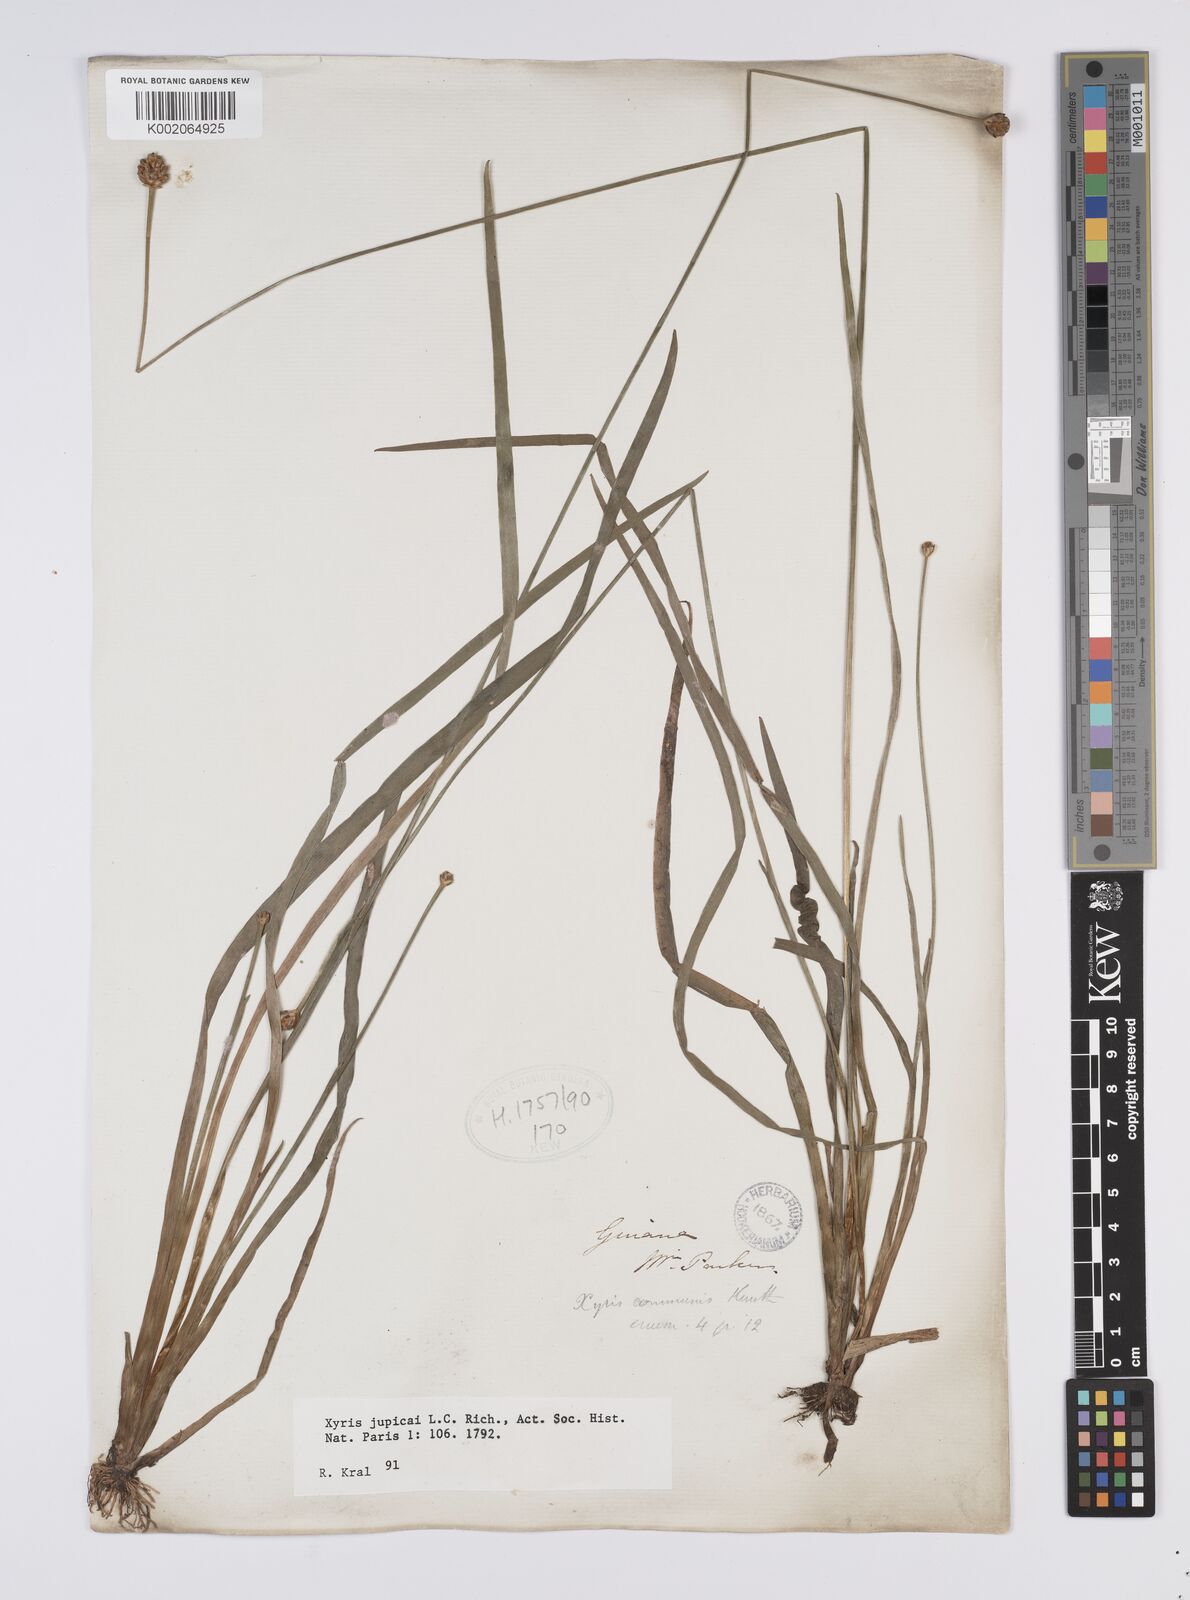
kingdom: Plantae
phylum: Tracheophyta
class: Liliopsida
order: Poales
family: Xyridaceae
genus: Xyris
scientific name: Xyris jupicai
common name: Richard's yelloweyed grass
